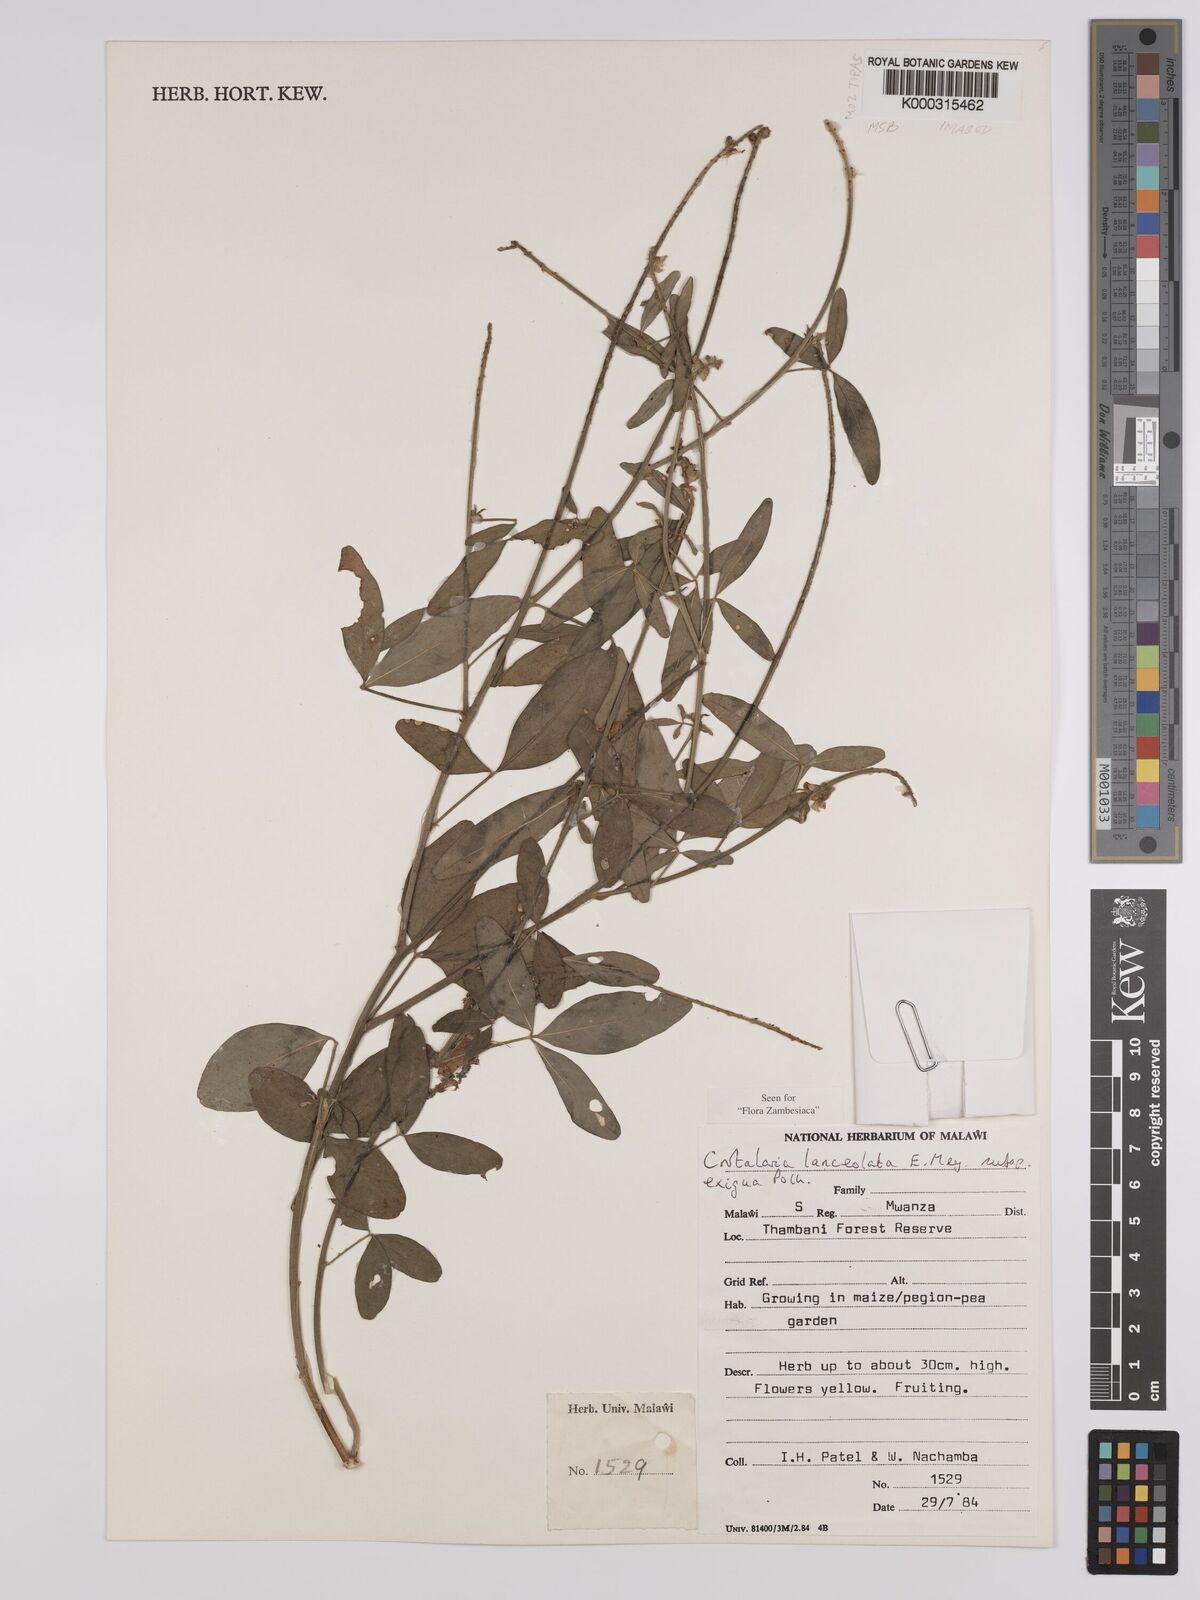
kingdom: Plantae
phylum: Tracheophyta
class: Magnoliopsida
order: Fabales
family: Fabaceae
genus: Crotalaria
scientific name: Crotalaria lanceolata
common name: Lanceleaf rattlebox
